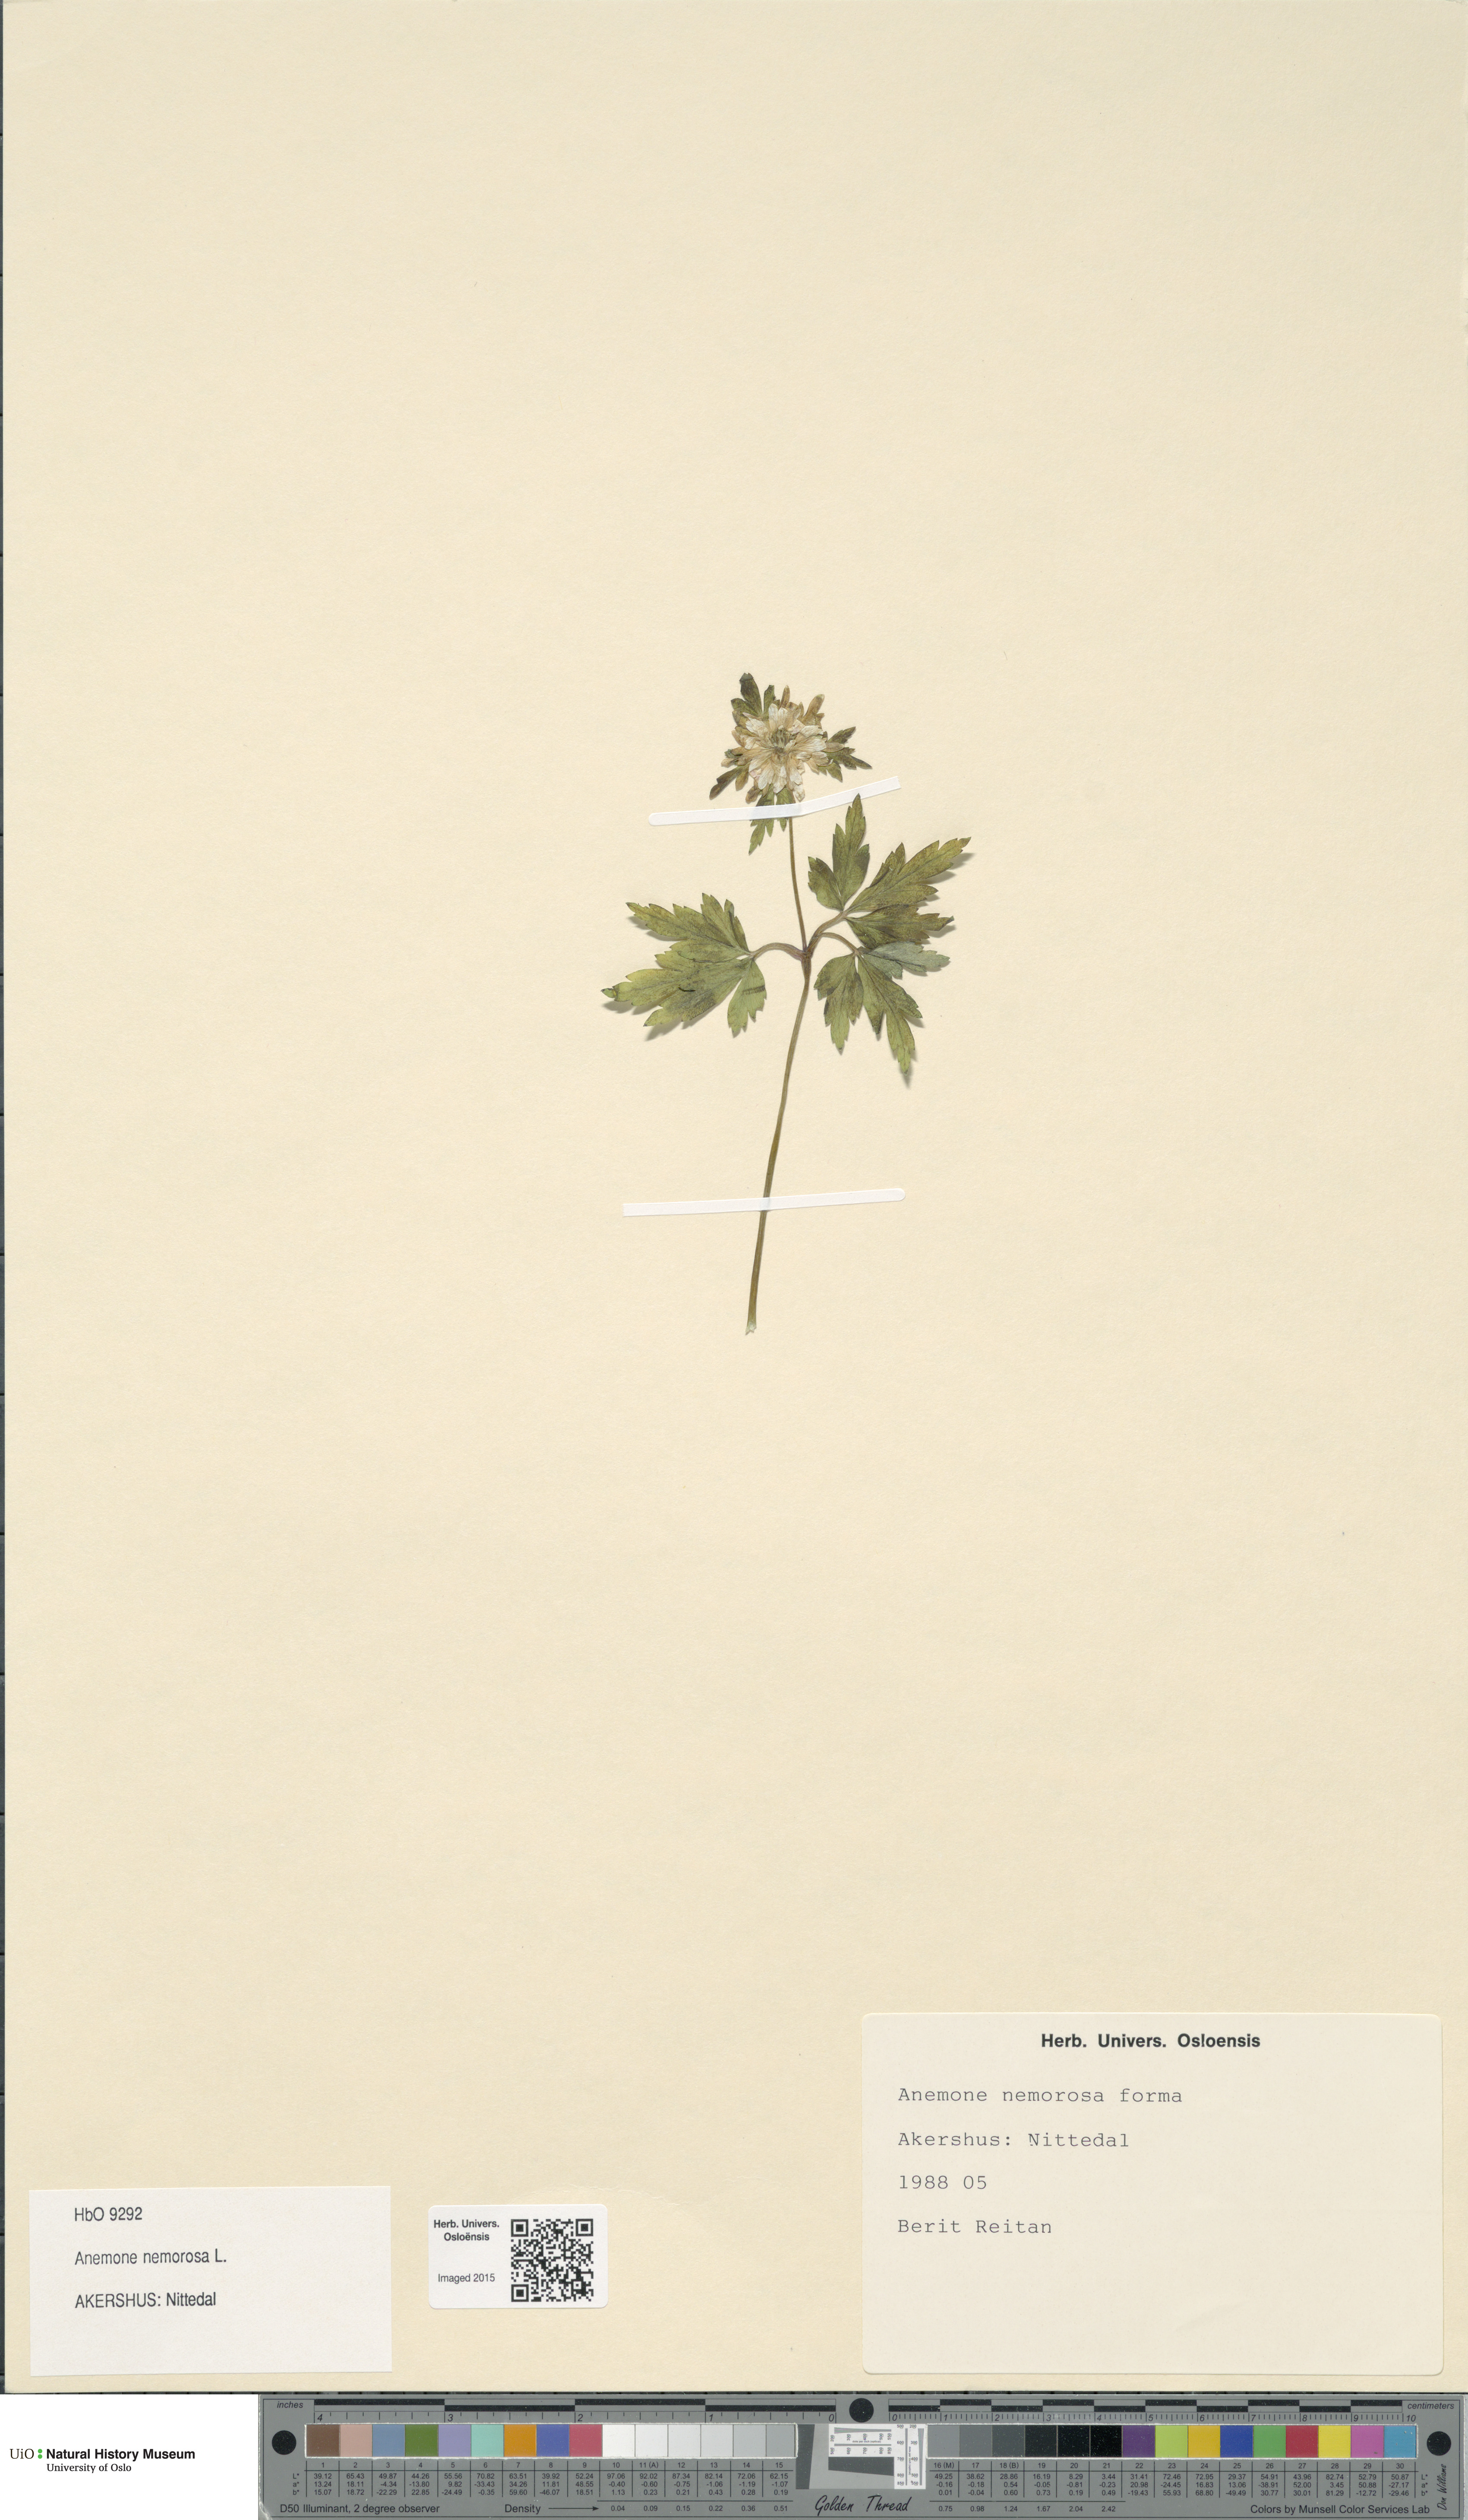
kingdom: Plantae
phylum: Tracheophyta
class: Magnoliopsida
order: Ranunculales
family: Ranunculaceae
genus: Anemone
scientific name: Anemone nemorosa
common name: Wood anemone
